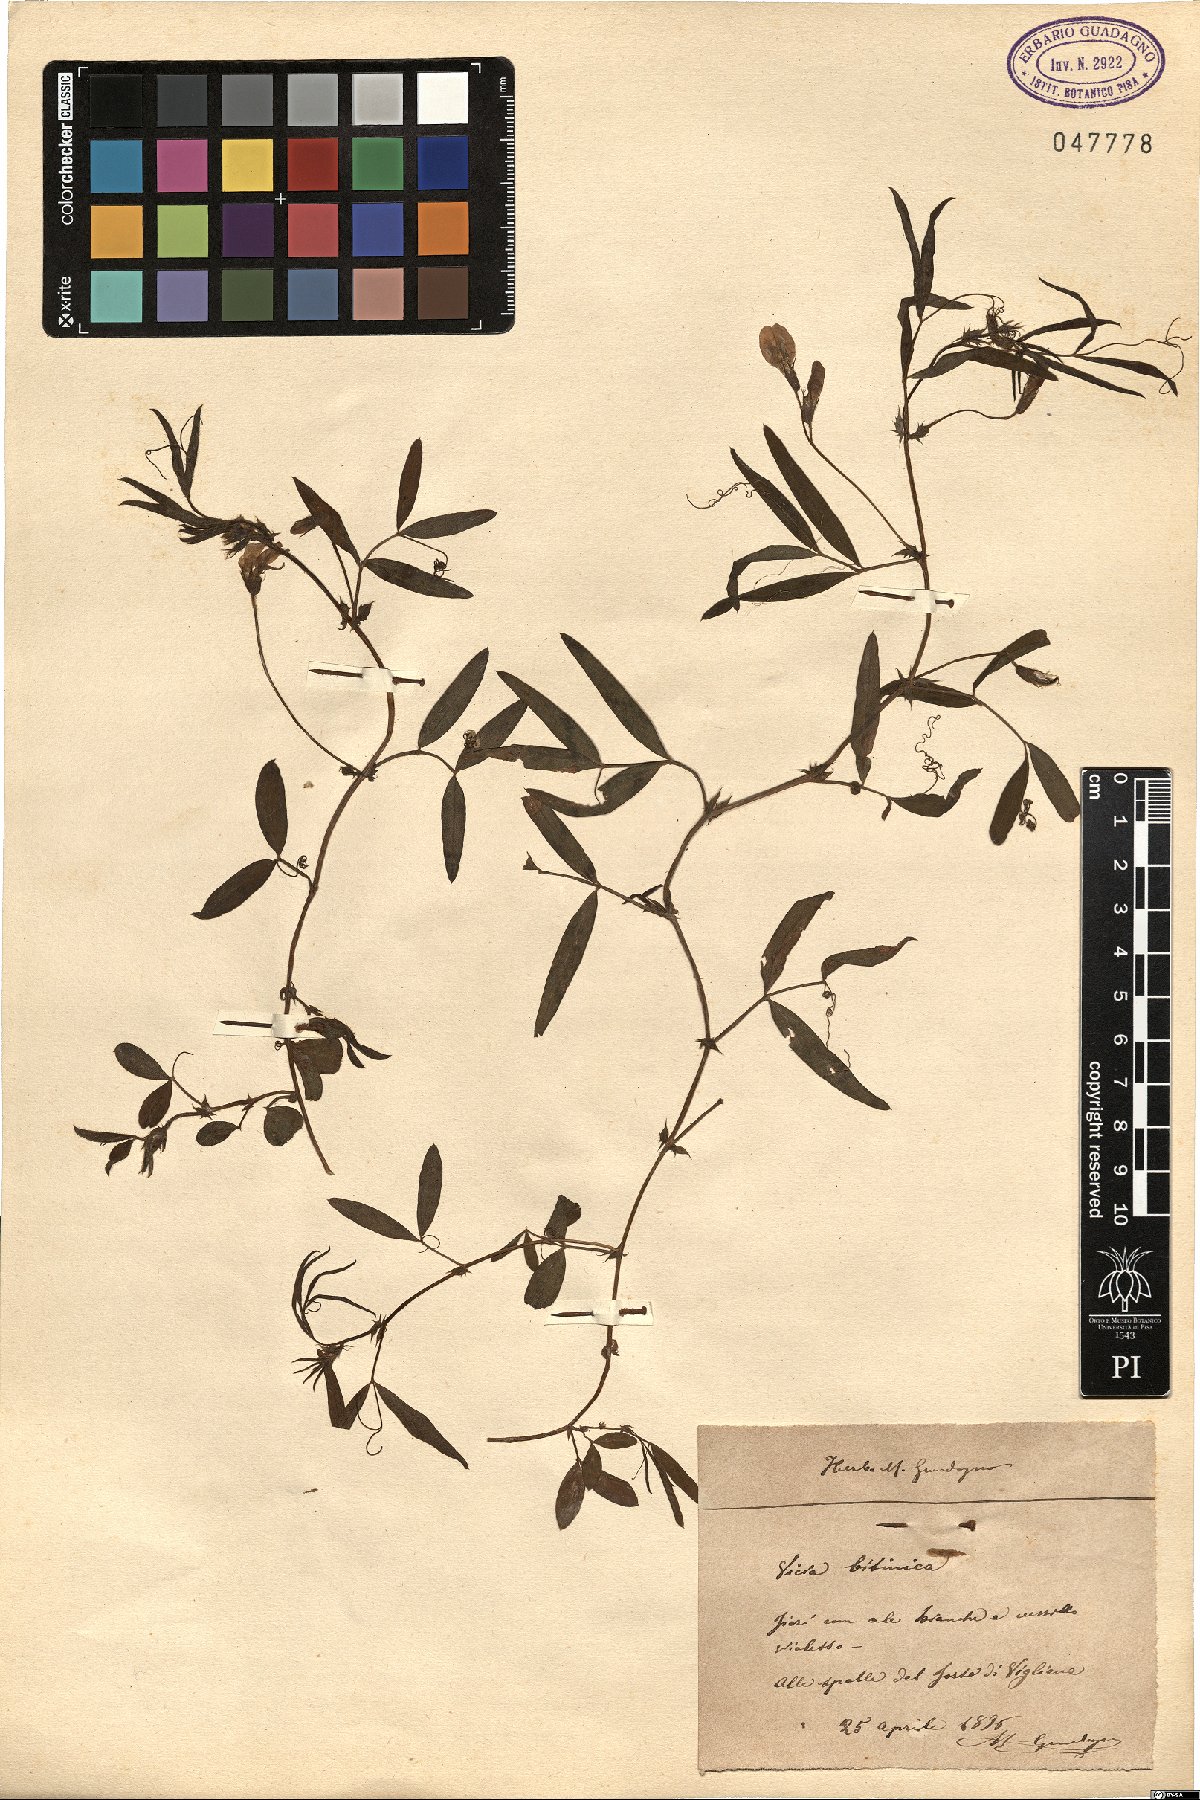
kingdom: Plantae
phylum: Tracheophyta
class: Magnoliopsida
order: Fabales
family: Fabaceae
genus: Vicia
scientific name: Vicia bithynica
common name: Bithynian vetch
